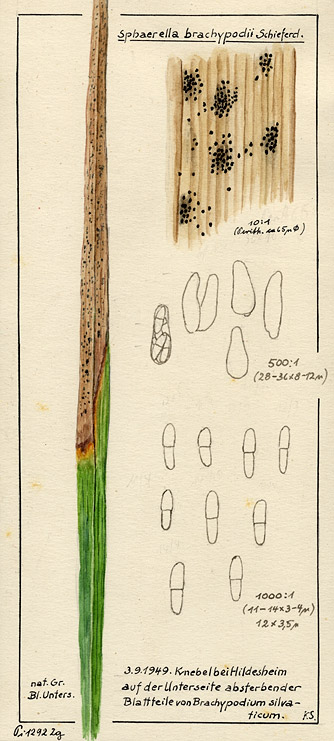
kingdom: Fungi
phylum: Ascomycota
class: Dothideomycetes
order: Mycosphaerellales
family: Mycosphaerellaceae
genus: Sphaerella
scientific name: Sphaerella
